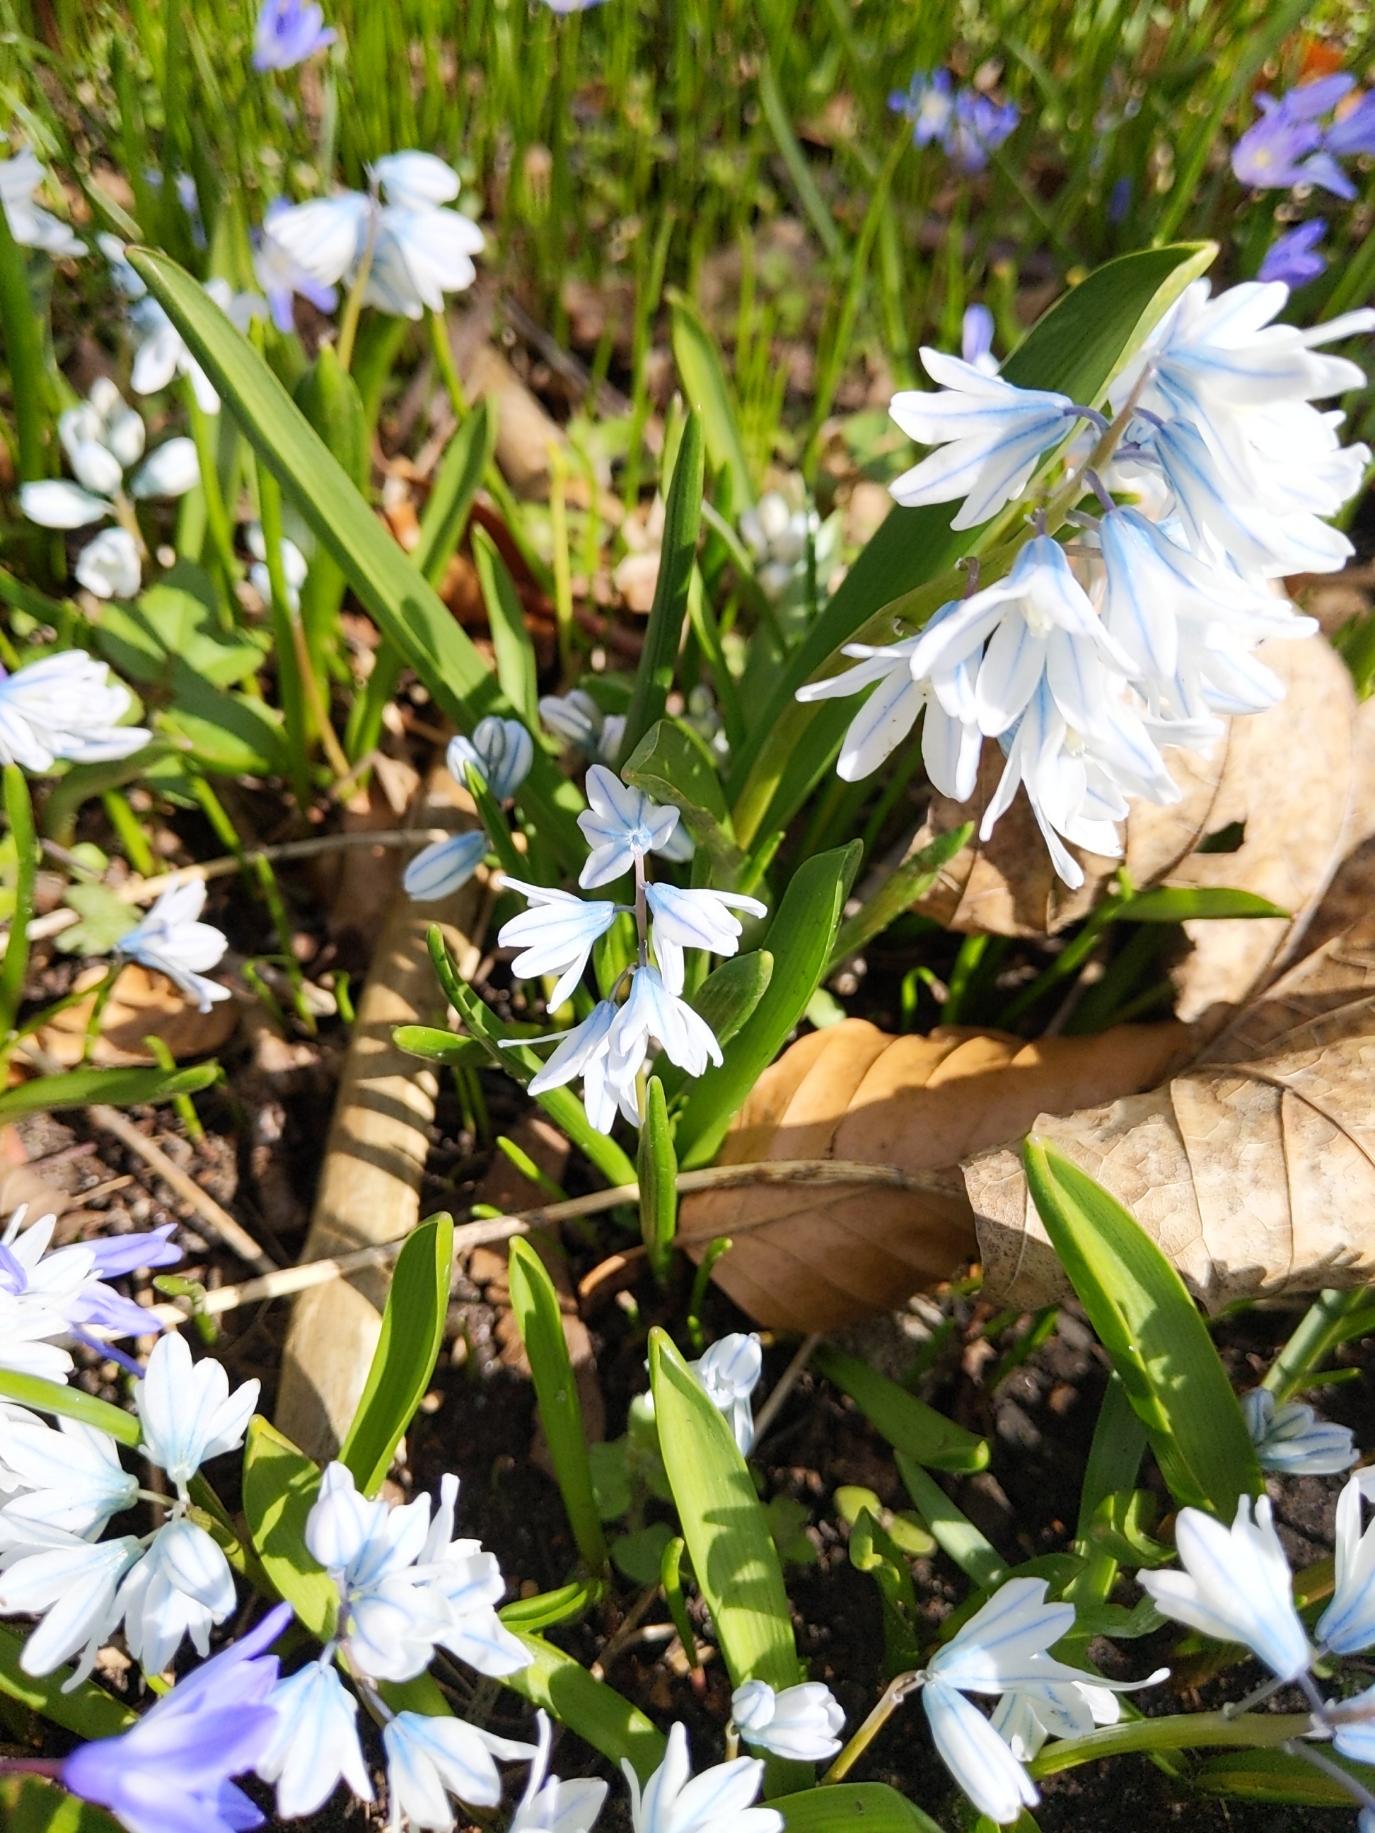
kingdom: Plantae
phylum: Tracheophyta
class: Liliopsida
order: Asparagales
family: Asparagaceae
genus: Puschkinia
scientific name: Puschkinia scilloides
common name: Porcelænshyacint
